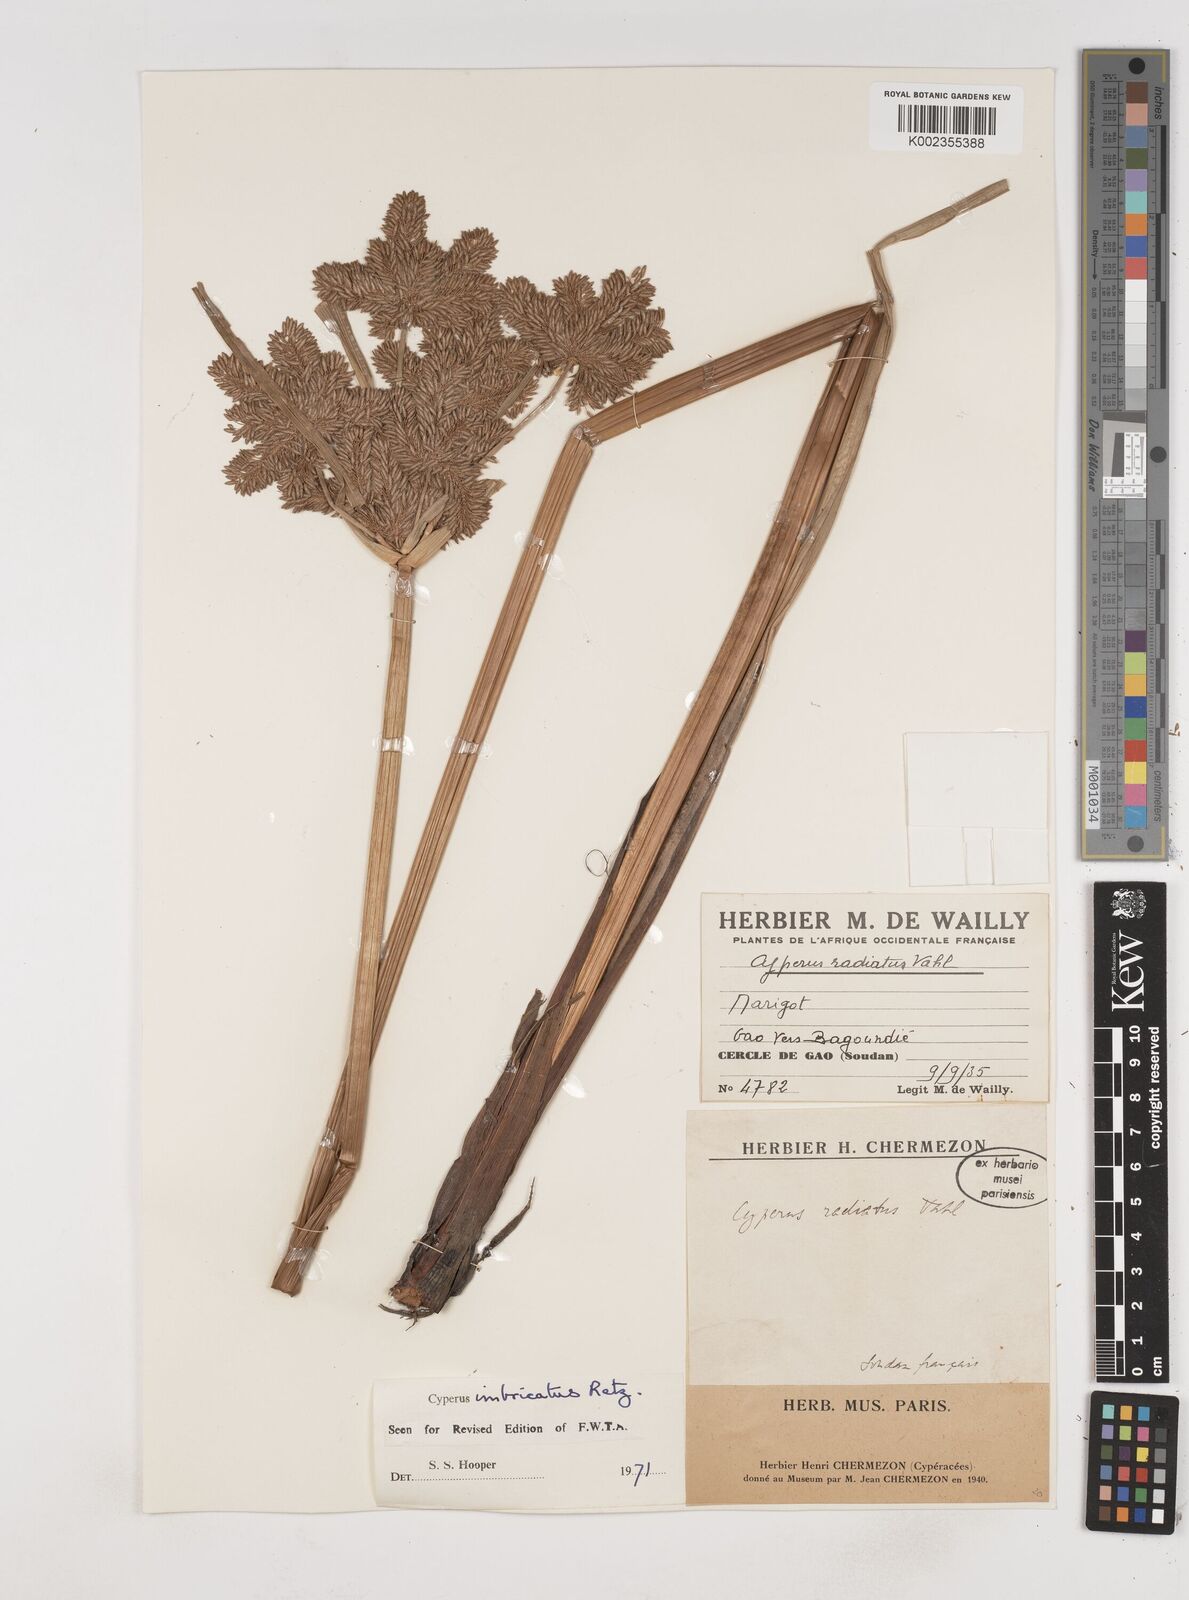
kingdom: Plantae
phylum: Tracheophyta
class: Liliopsida
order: Poales
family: Cyperaceae
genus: Cyperus
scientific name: Cyperus imbricatus
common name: Shingle flatsedge
